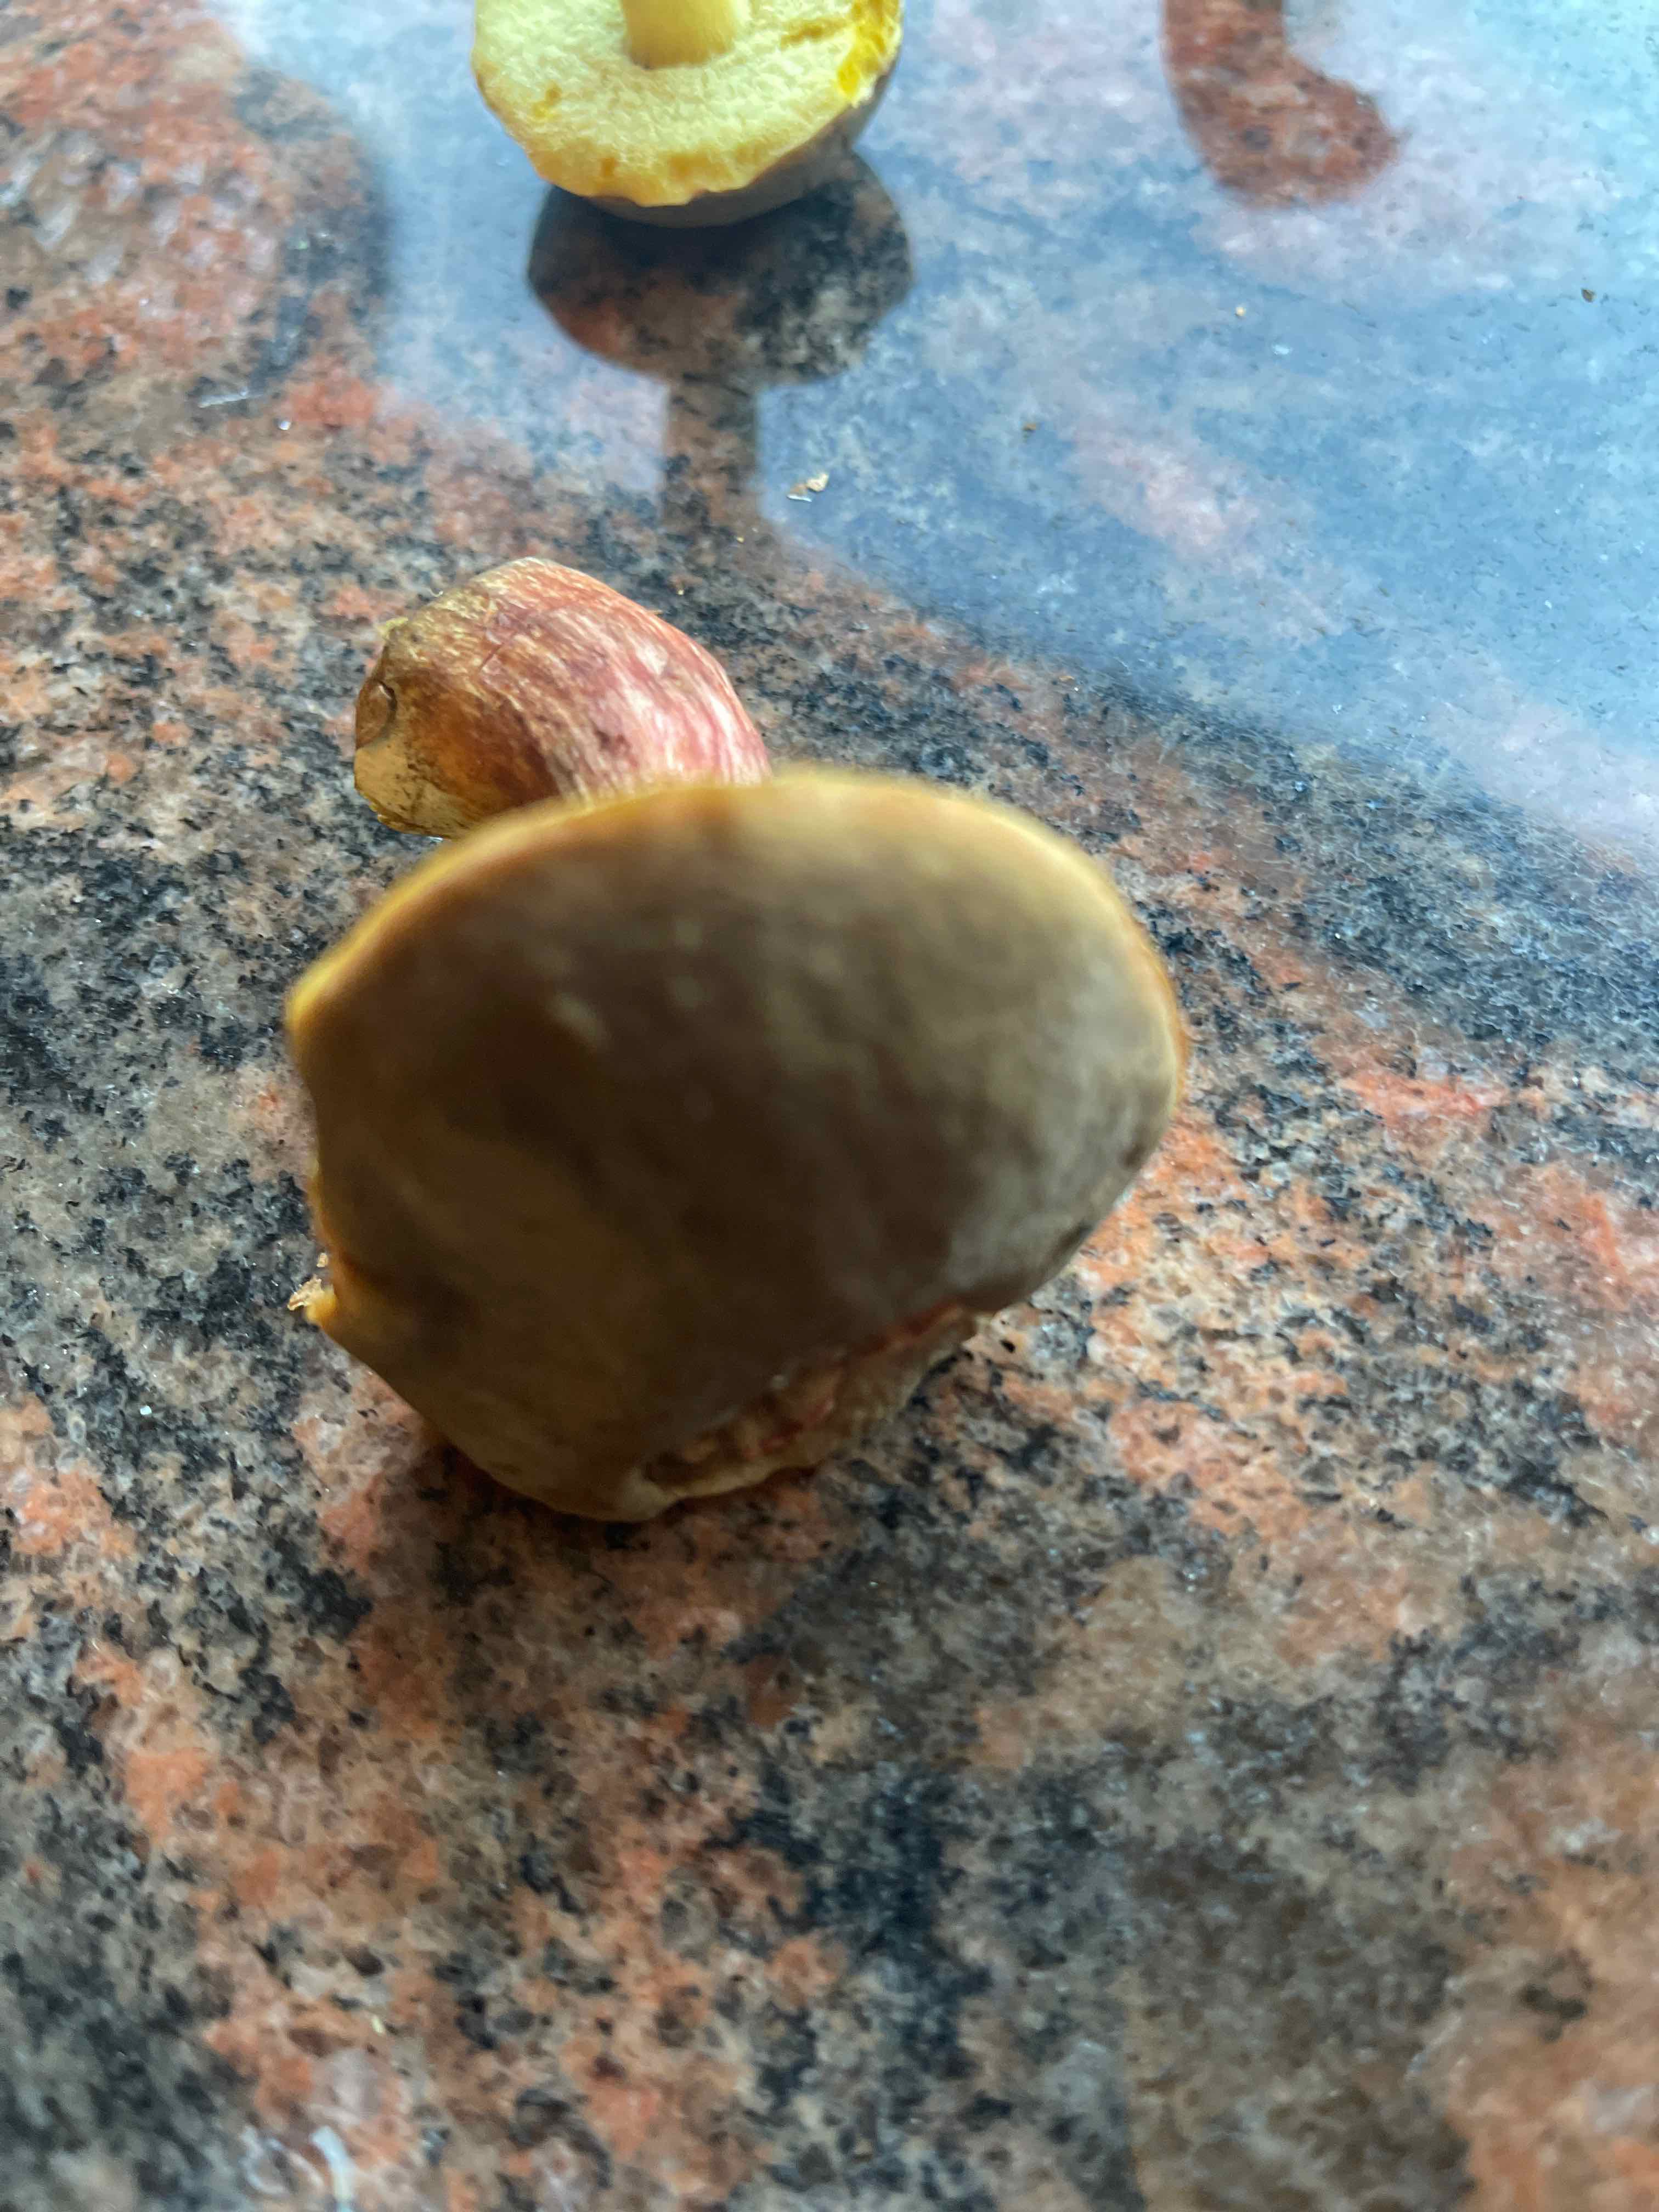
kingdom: Fungi
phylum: Basidiomycota
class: Agaricomycetes
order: Boletales
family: Boletaceae
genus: Xerocomellus
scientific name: Xerocomellus
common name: dværgrørhat
